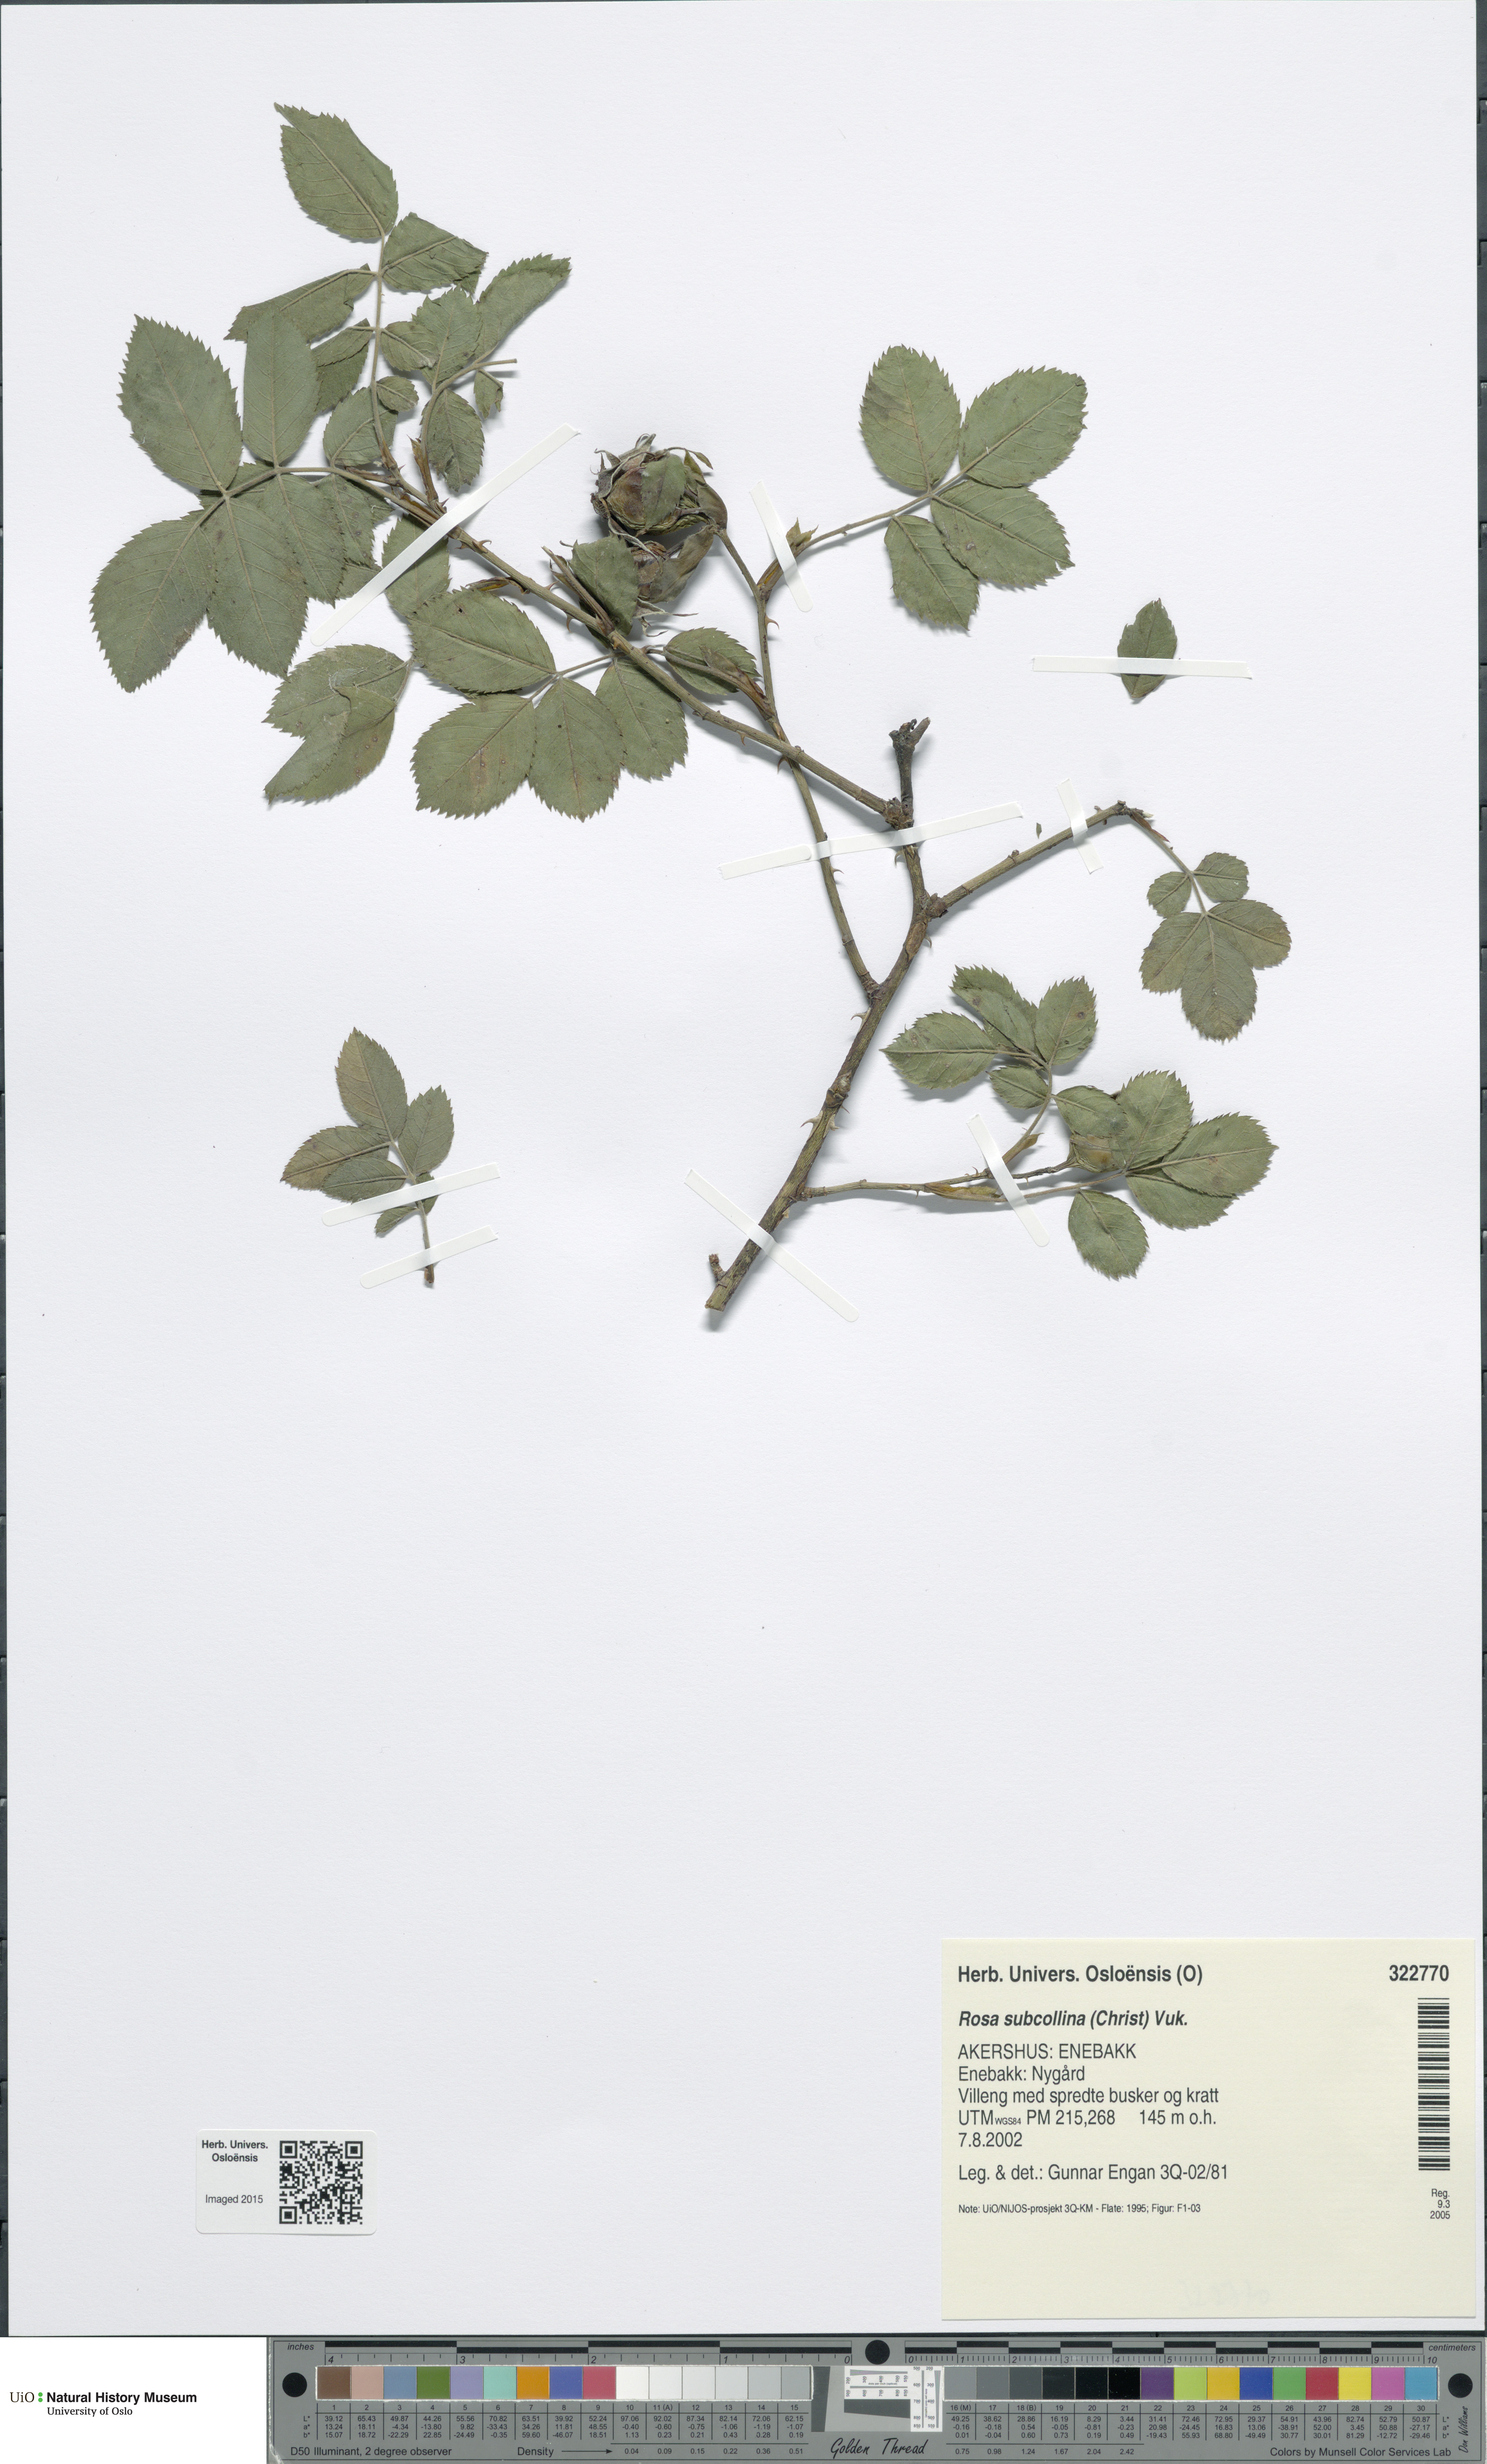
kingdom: Plantae
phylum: Tracheophyta
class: Magnoliopsida
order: Rosales
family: Rosaceae
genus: Rosa
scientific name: Rosa subcollina
